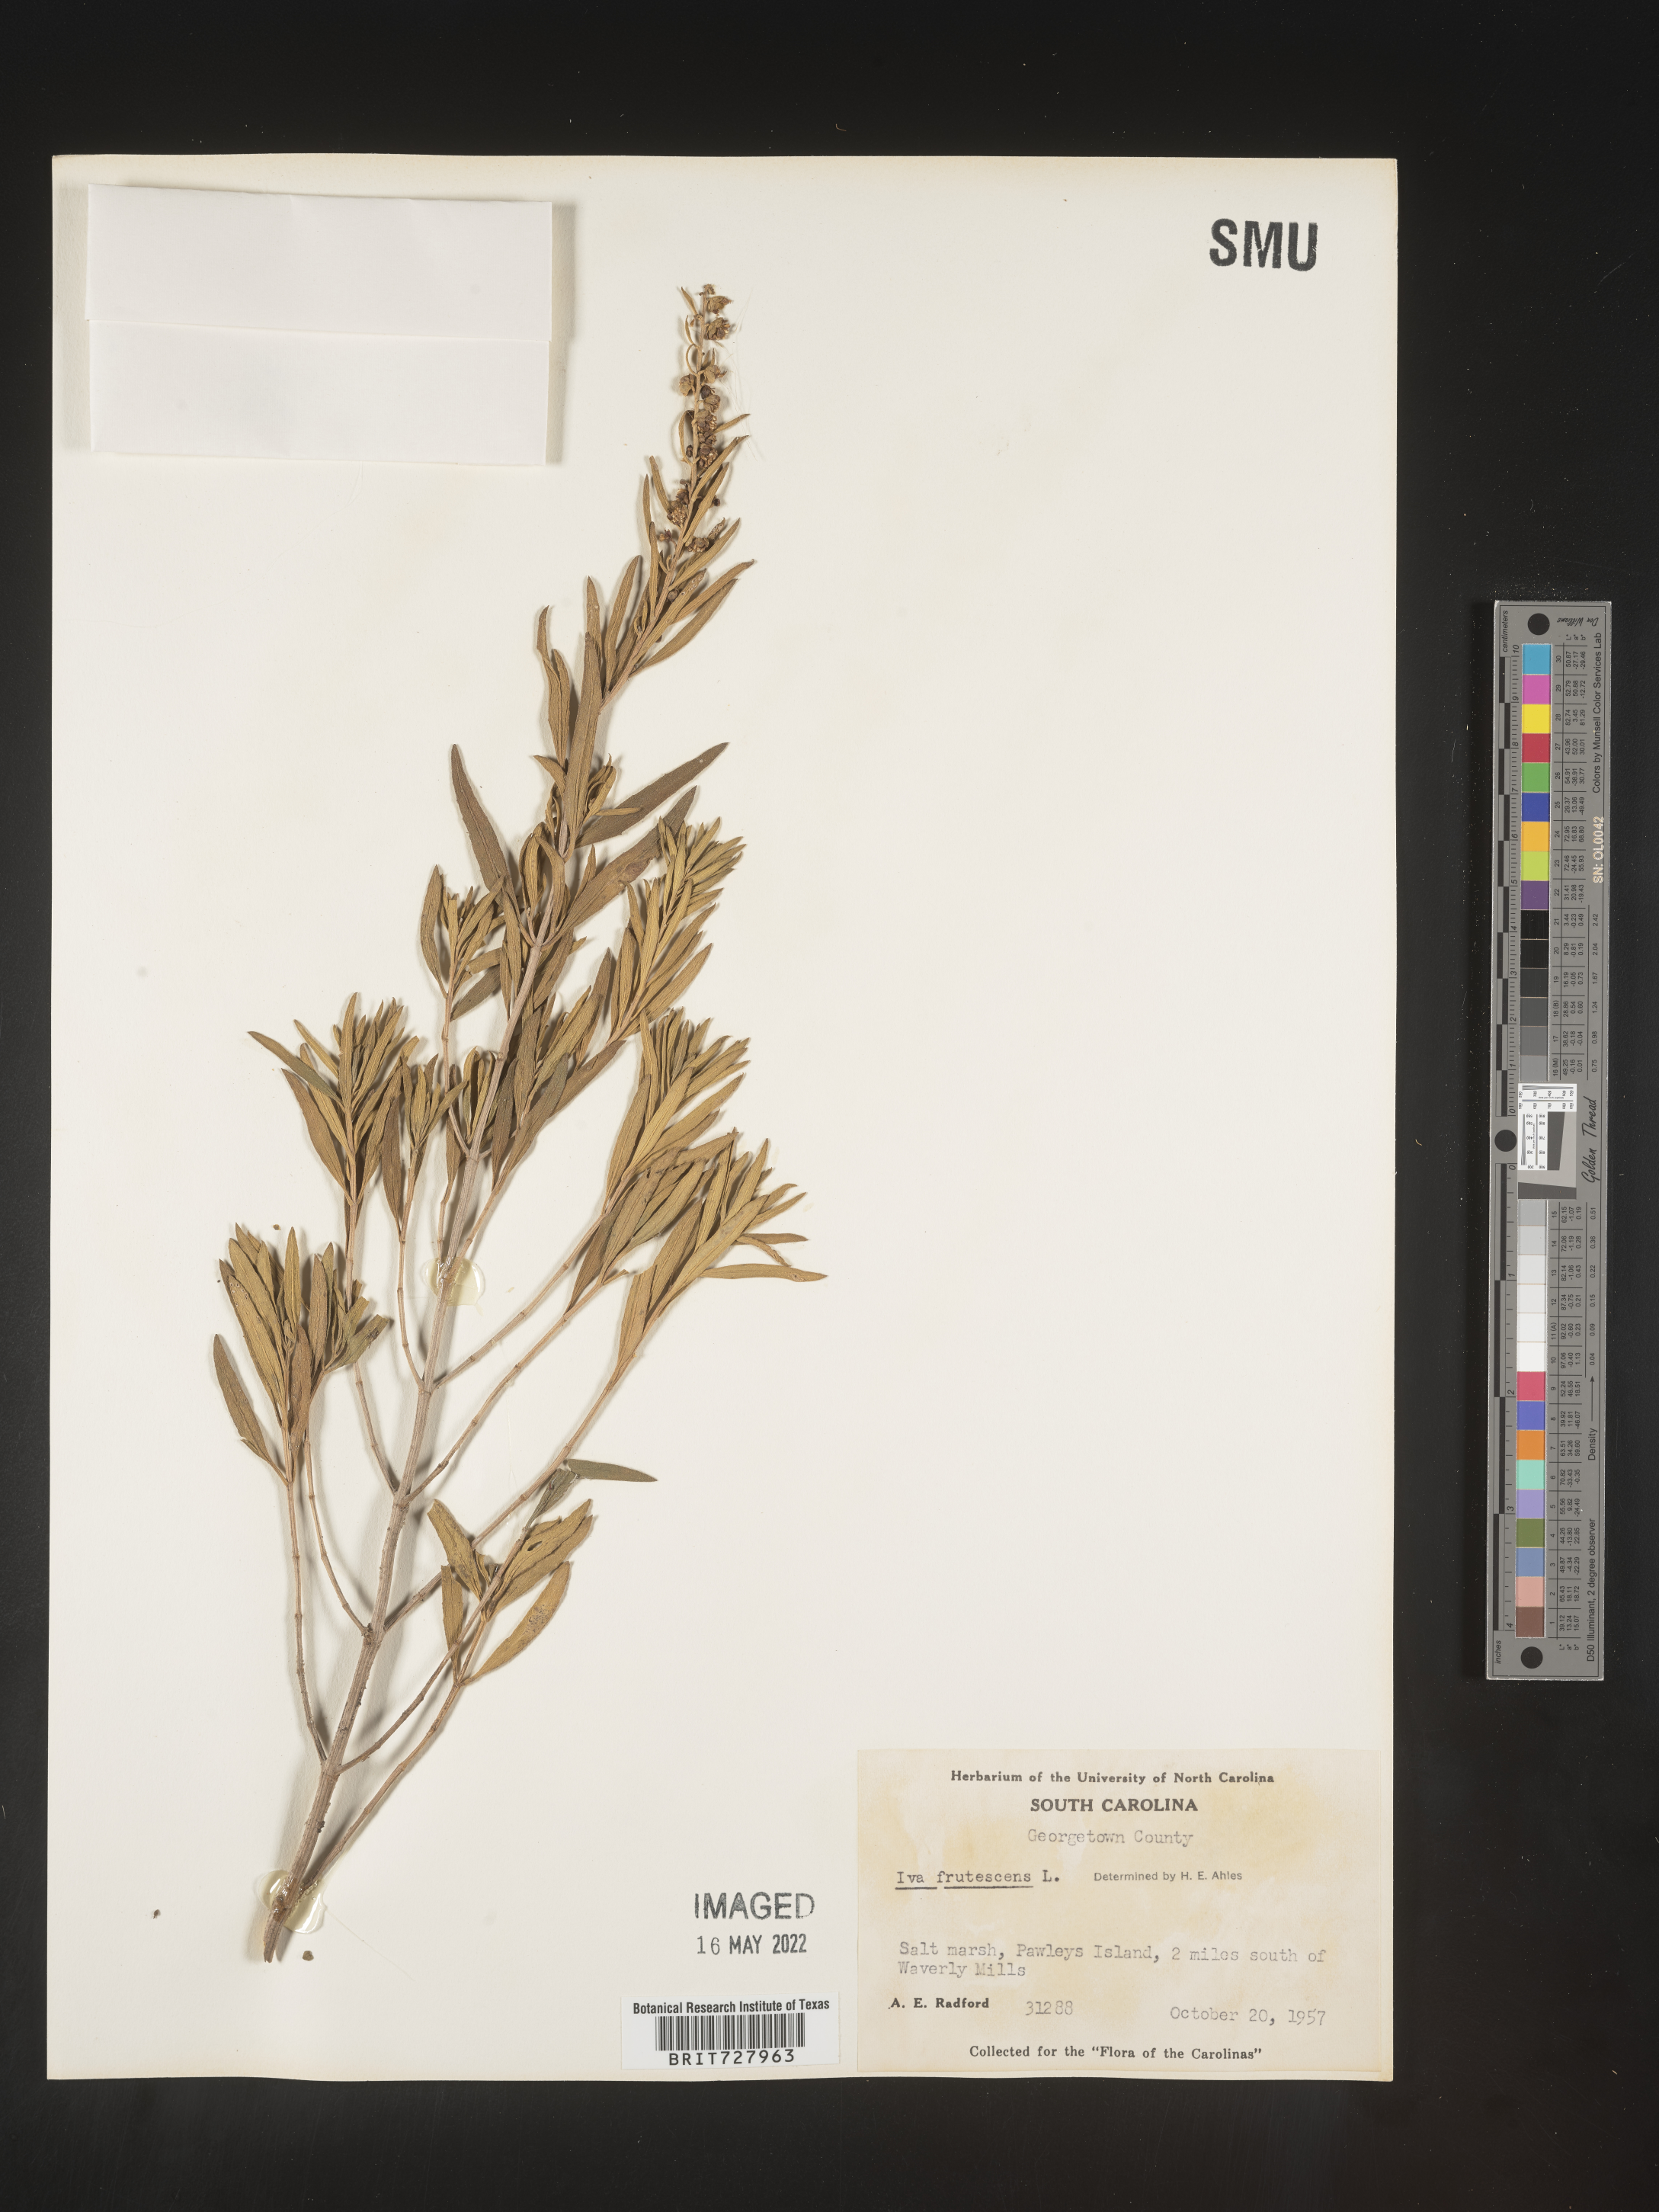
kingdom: Plantae
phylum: Tracheophyta
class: Magnoliopsida
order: Asterales
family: Asteraceae
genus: Iva
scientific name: Iva frutescens
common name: Big-leaved marsh-elder
